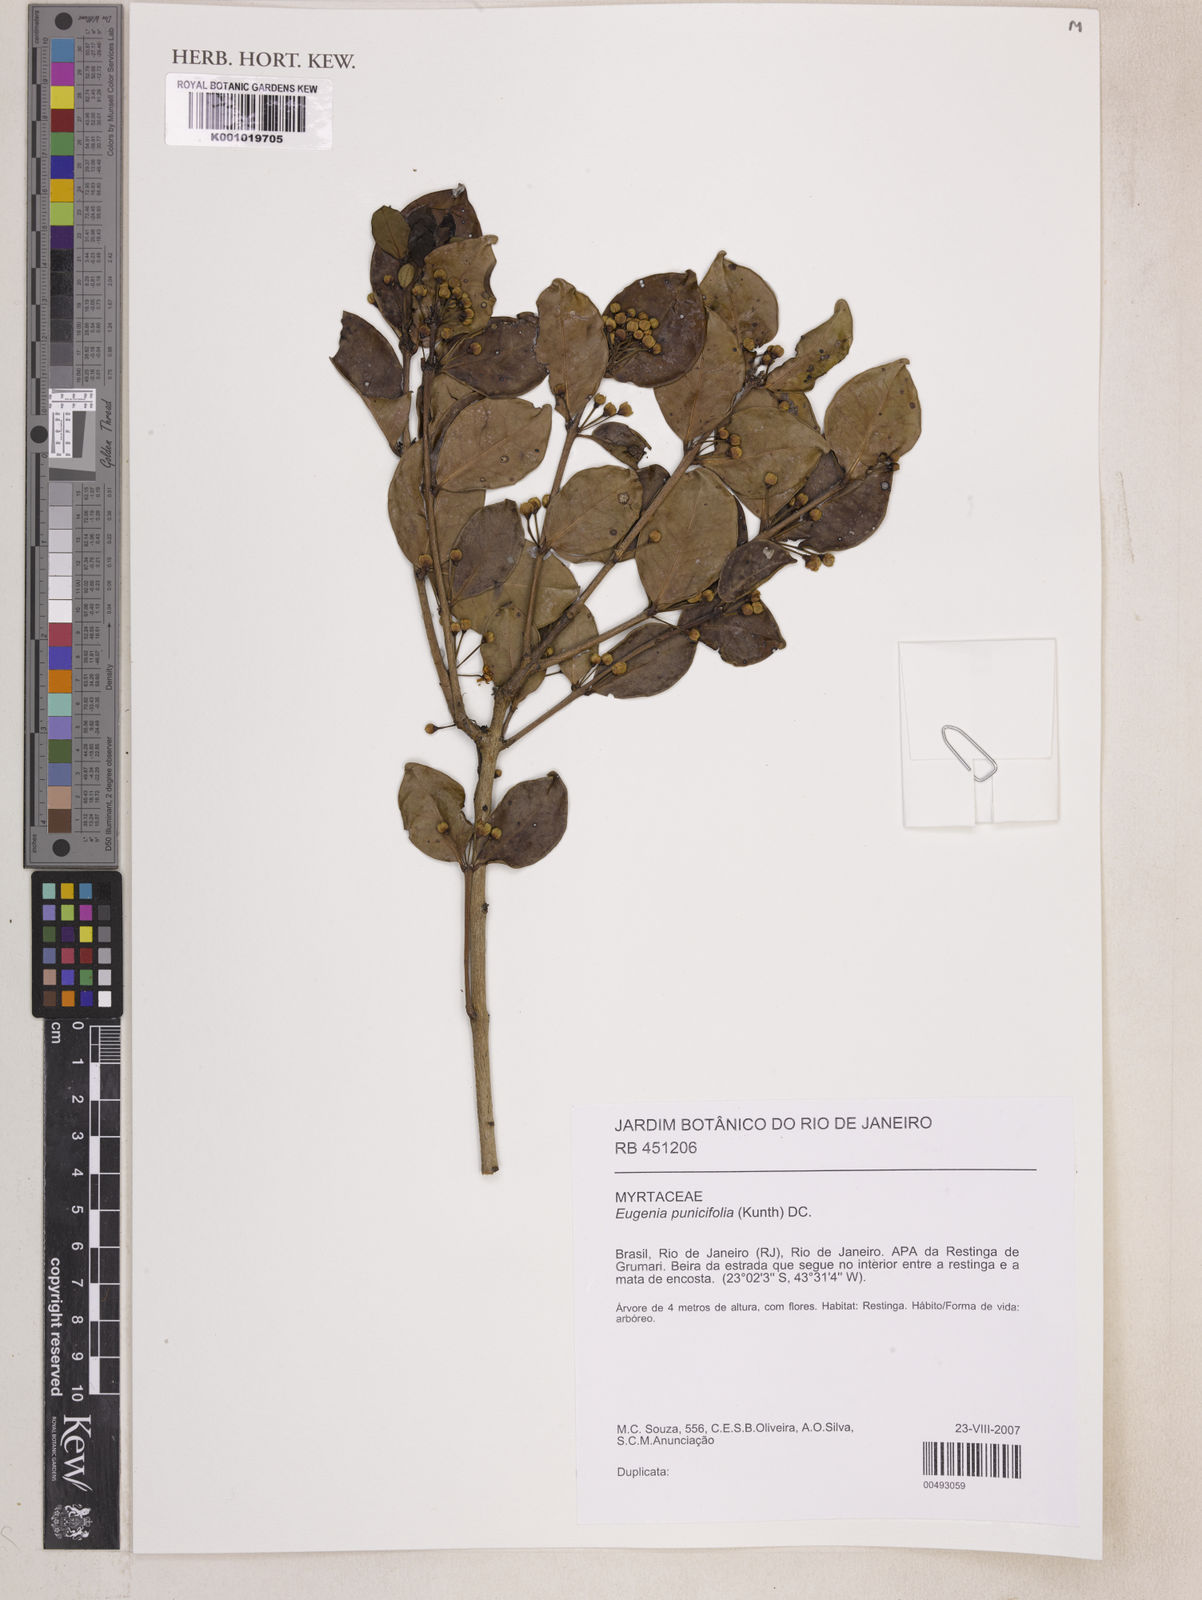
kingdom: Plantae
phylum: Tracheophyta
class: Magnoliopsida
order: Myrtales
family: Myrtaceae
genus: Eugenia
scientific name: Eugenia punicifolia
